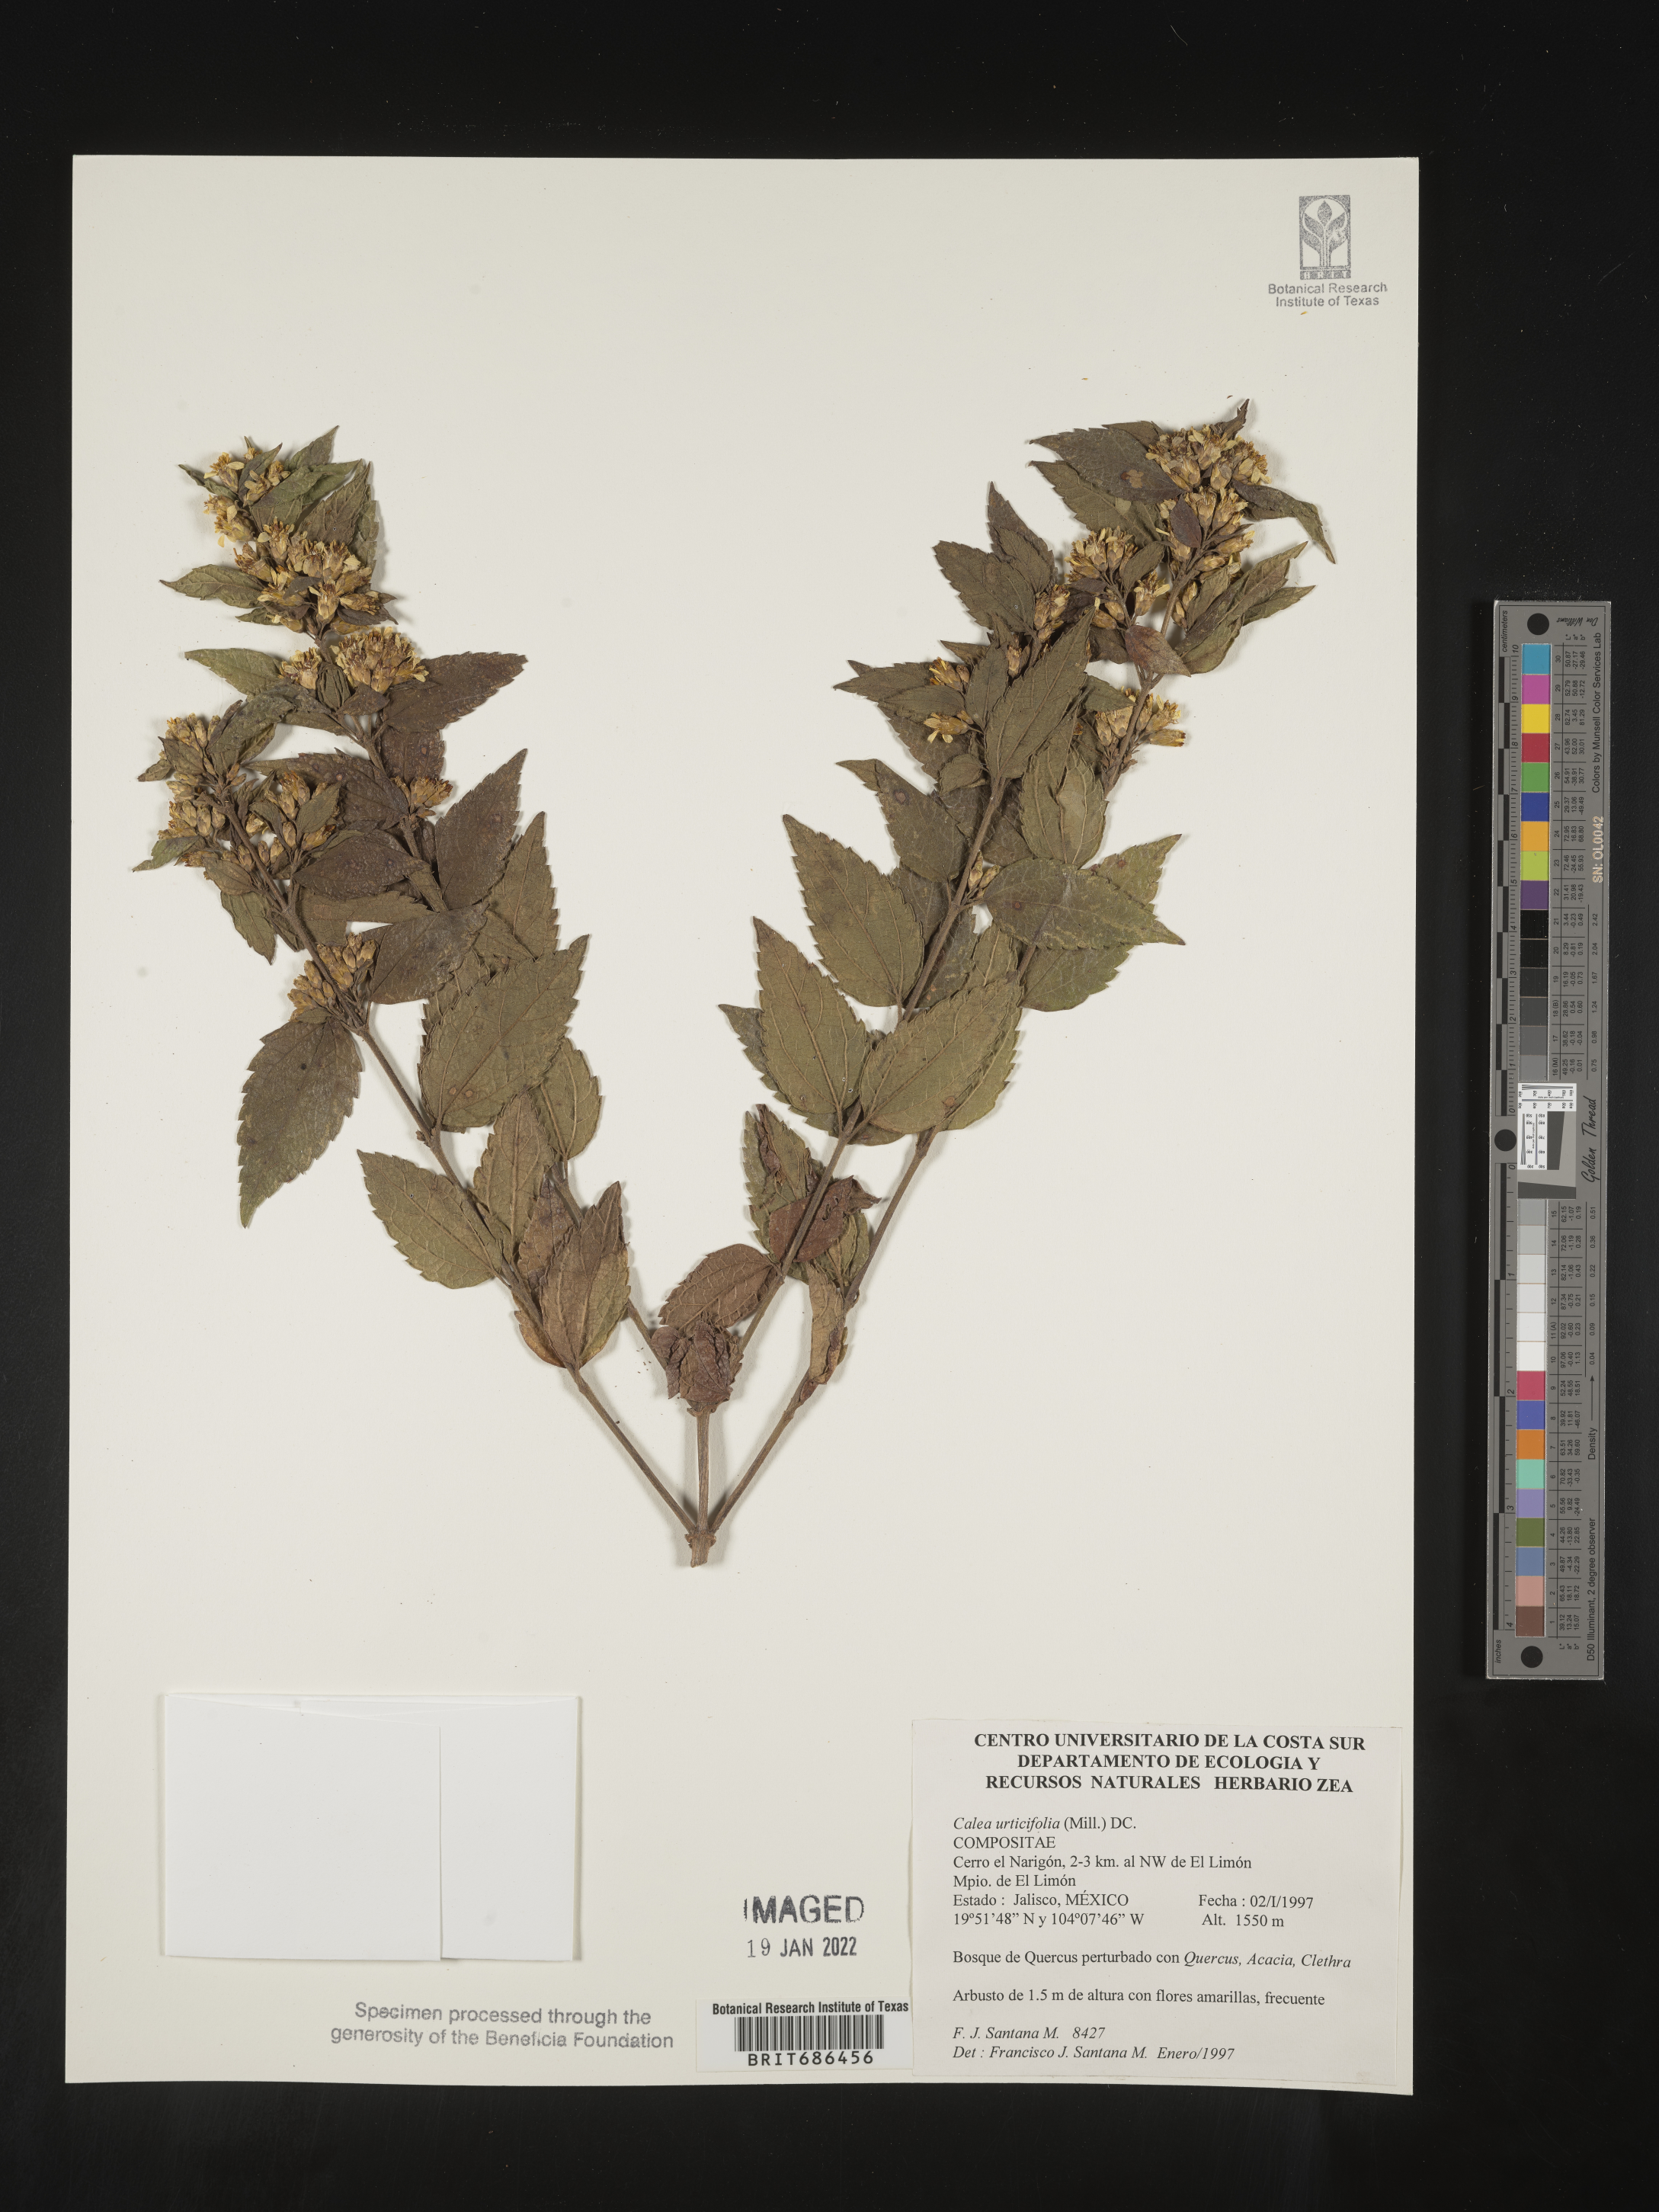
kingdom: Plantae
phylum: Tracheophyta
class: Magnoliopsida
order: Asterales
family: Asteraceae
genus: Calea
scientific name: Calea
